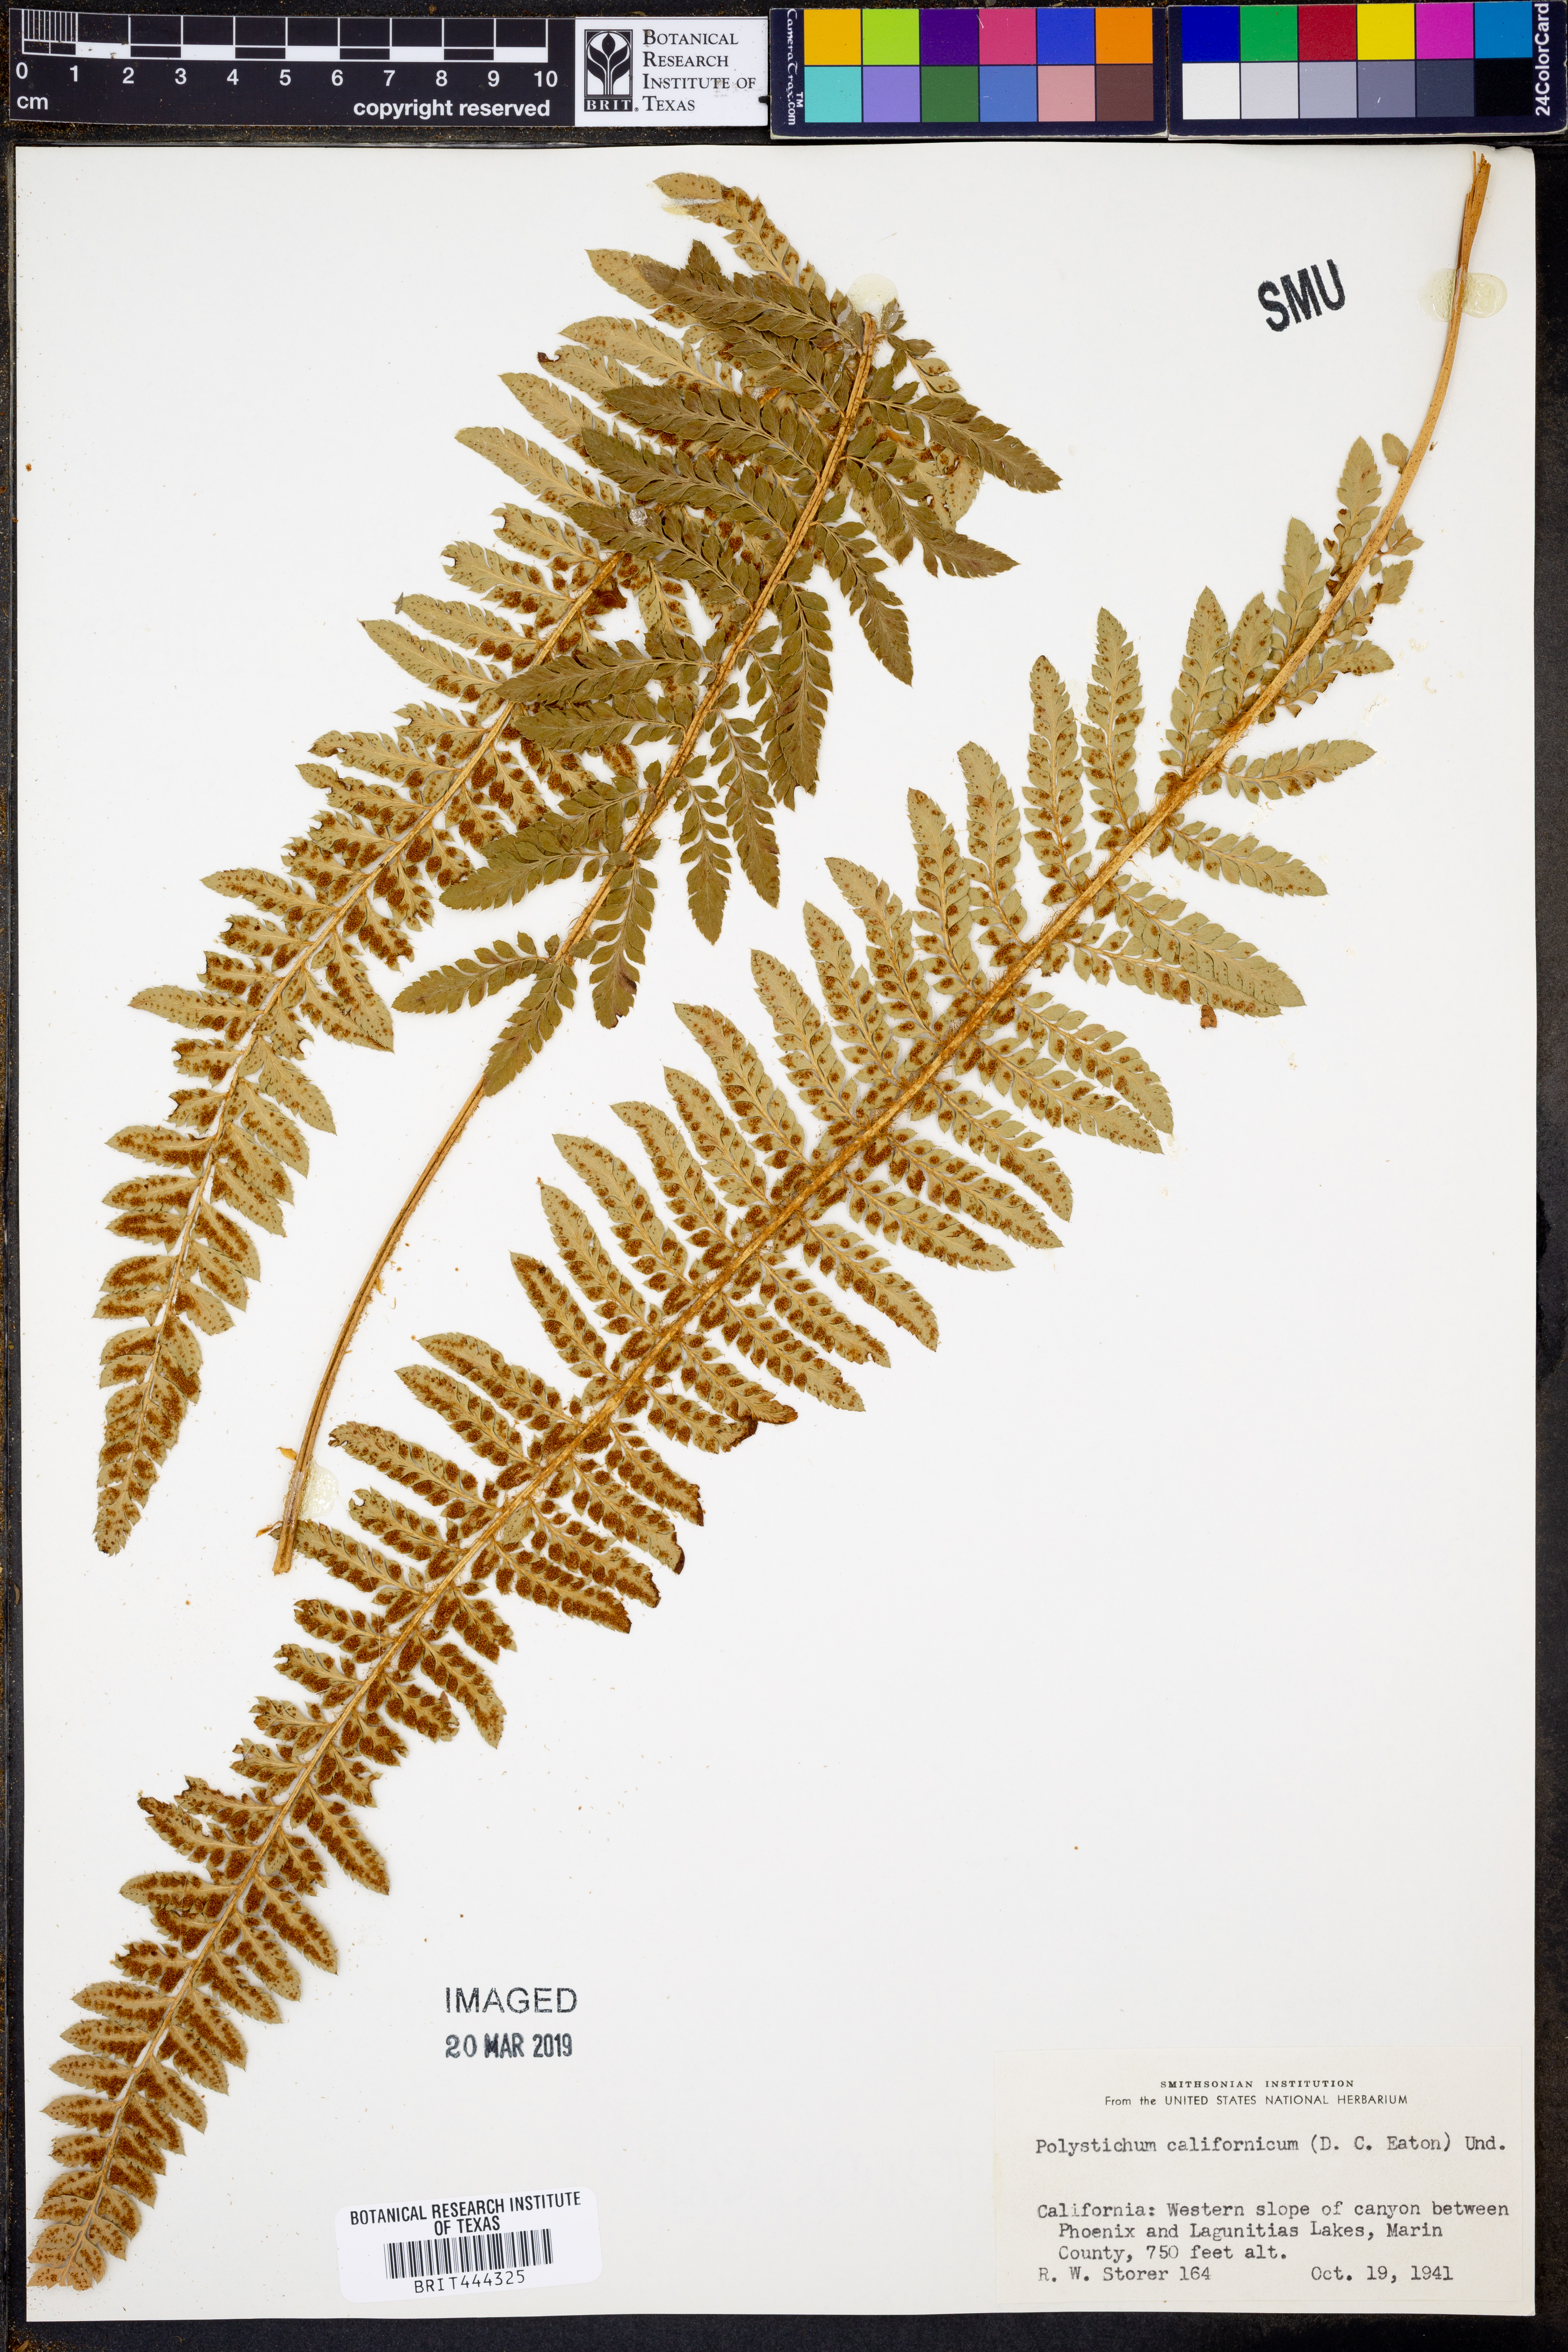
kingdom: Plantae
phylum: Tracheophyta
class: Polypodiopsida
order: Polypodiales
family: Dryopteridaceae
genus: Polystichum
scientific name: Polystichum californicum
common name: California sword fern
